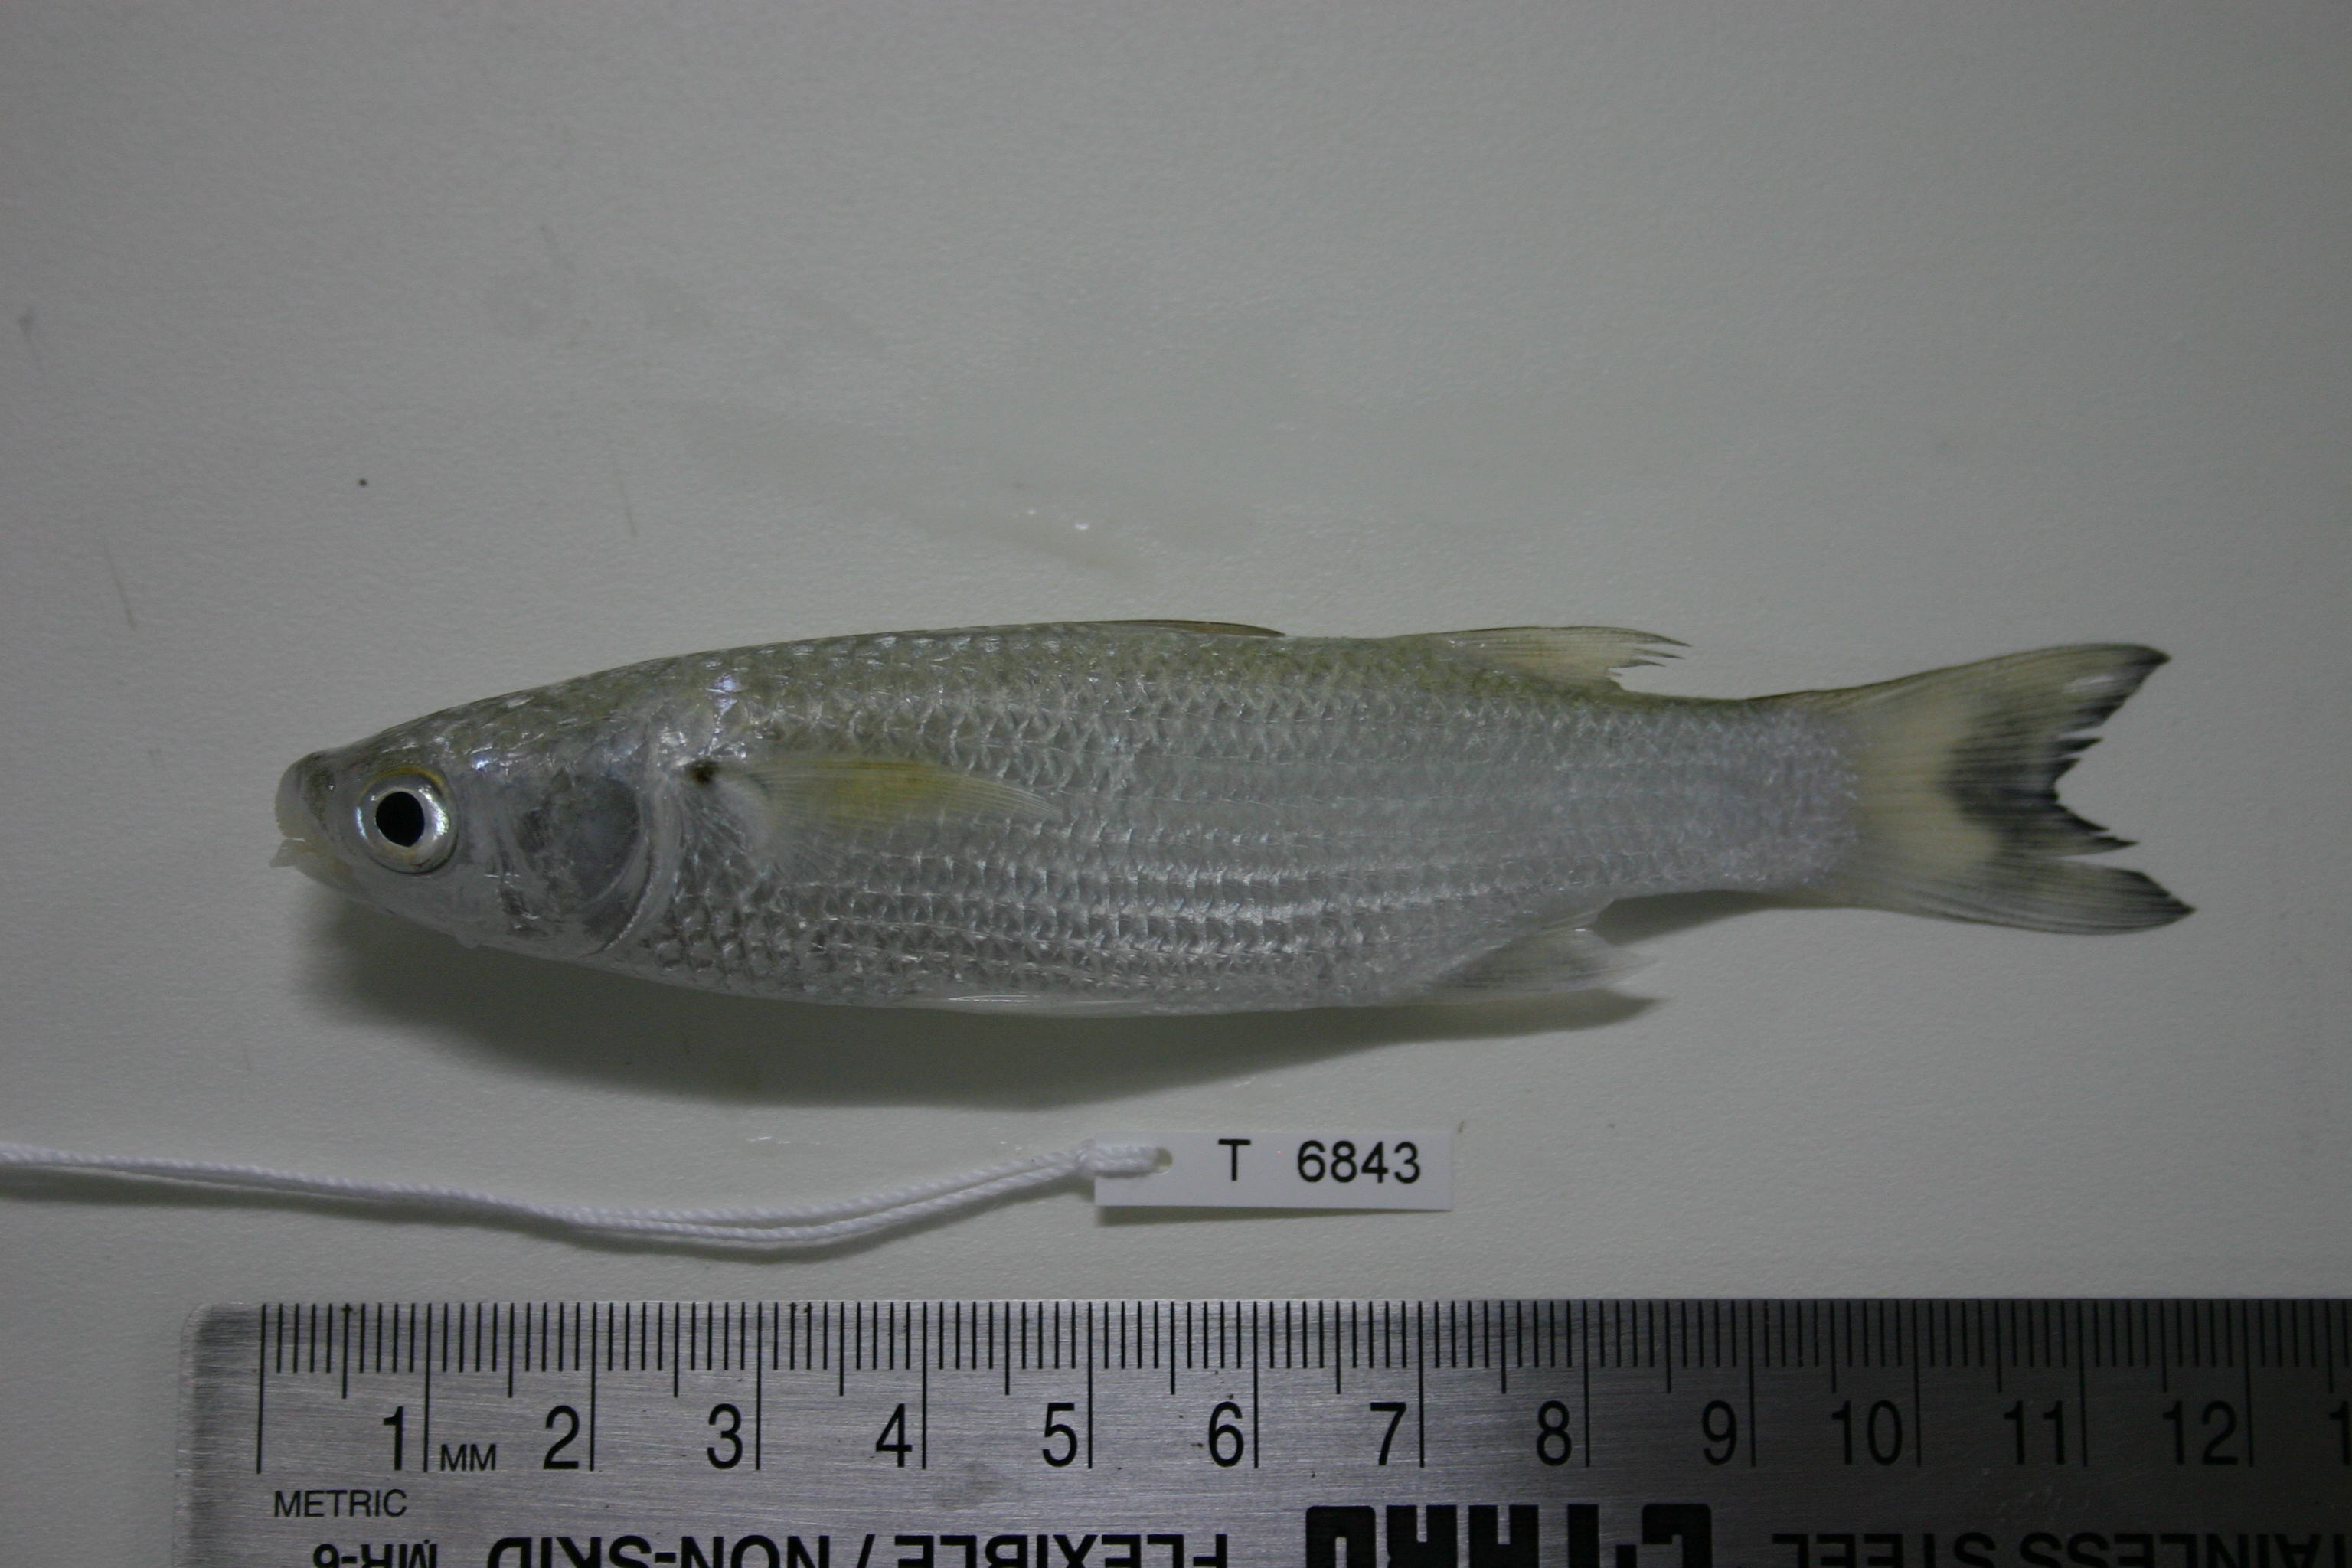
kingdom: Animalia
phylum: Chordata
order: Mugiliformes
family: Mugilidae
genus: Crenimugil
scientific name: Crenimugil crenilabis
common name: Fringelip mullet
